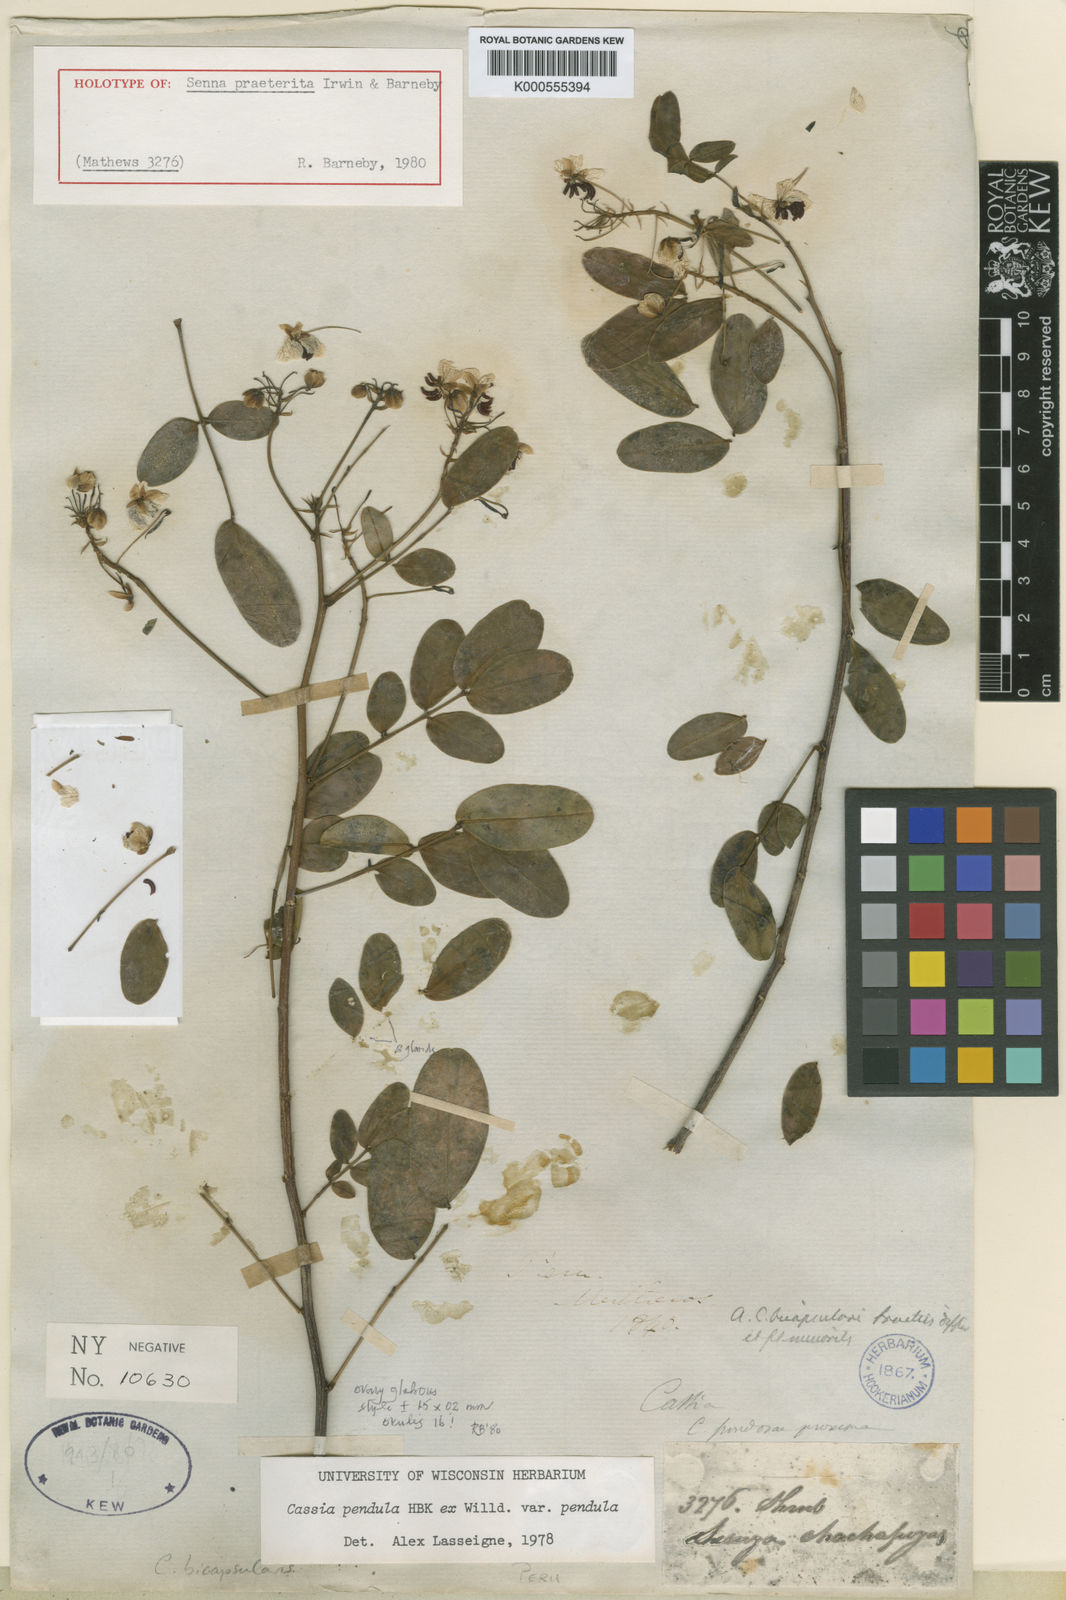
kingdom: Plantae
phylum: Tracheophyta
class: Magnoliopsida
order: Fabales
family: Fabaceae
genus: Senna
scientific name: Senna praeterita
